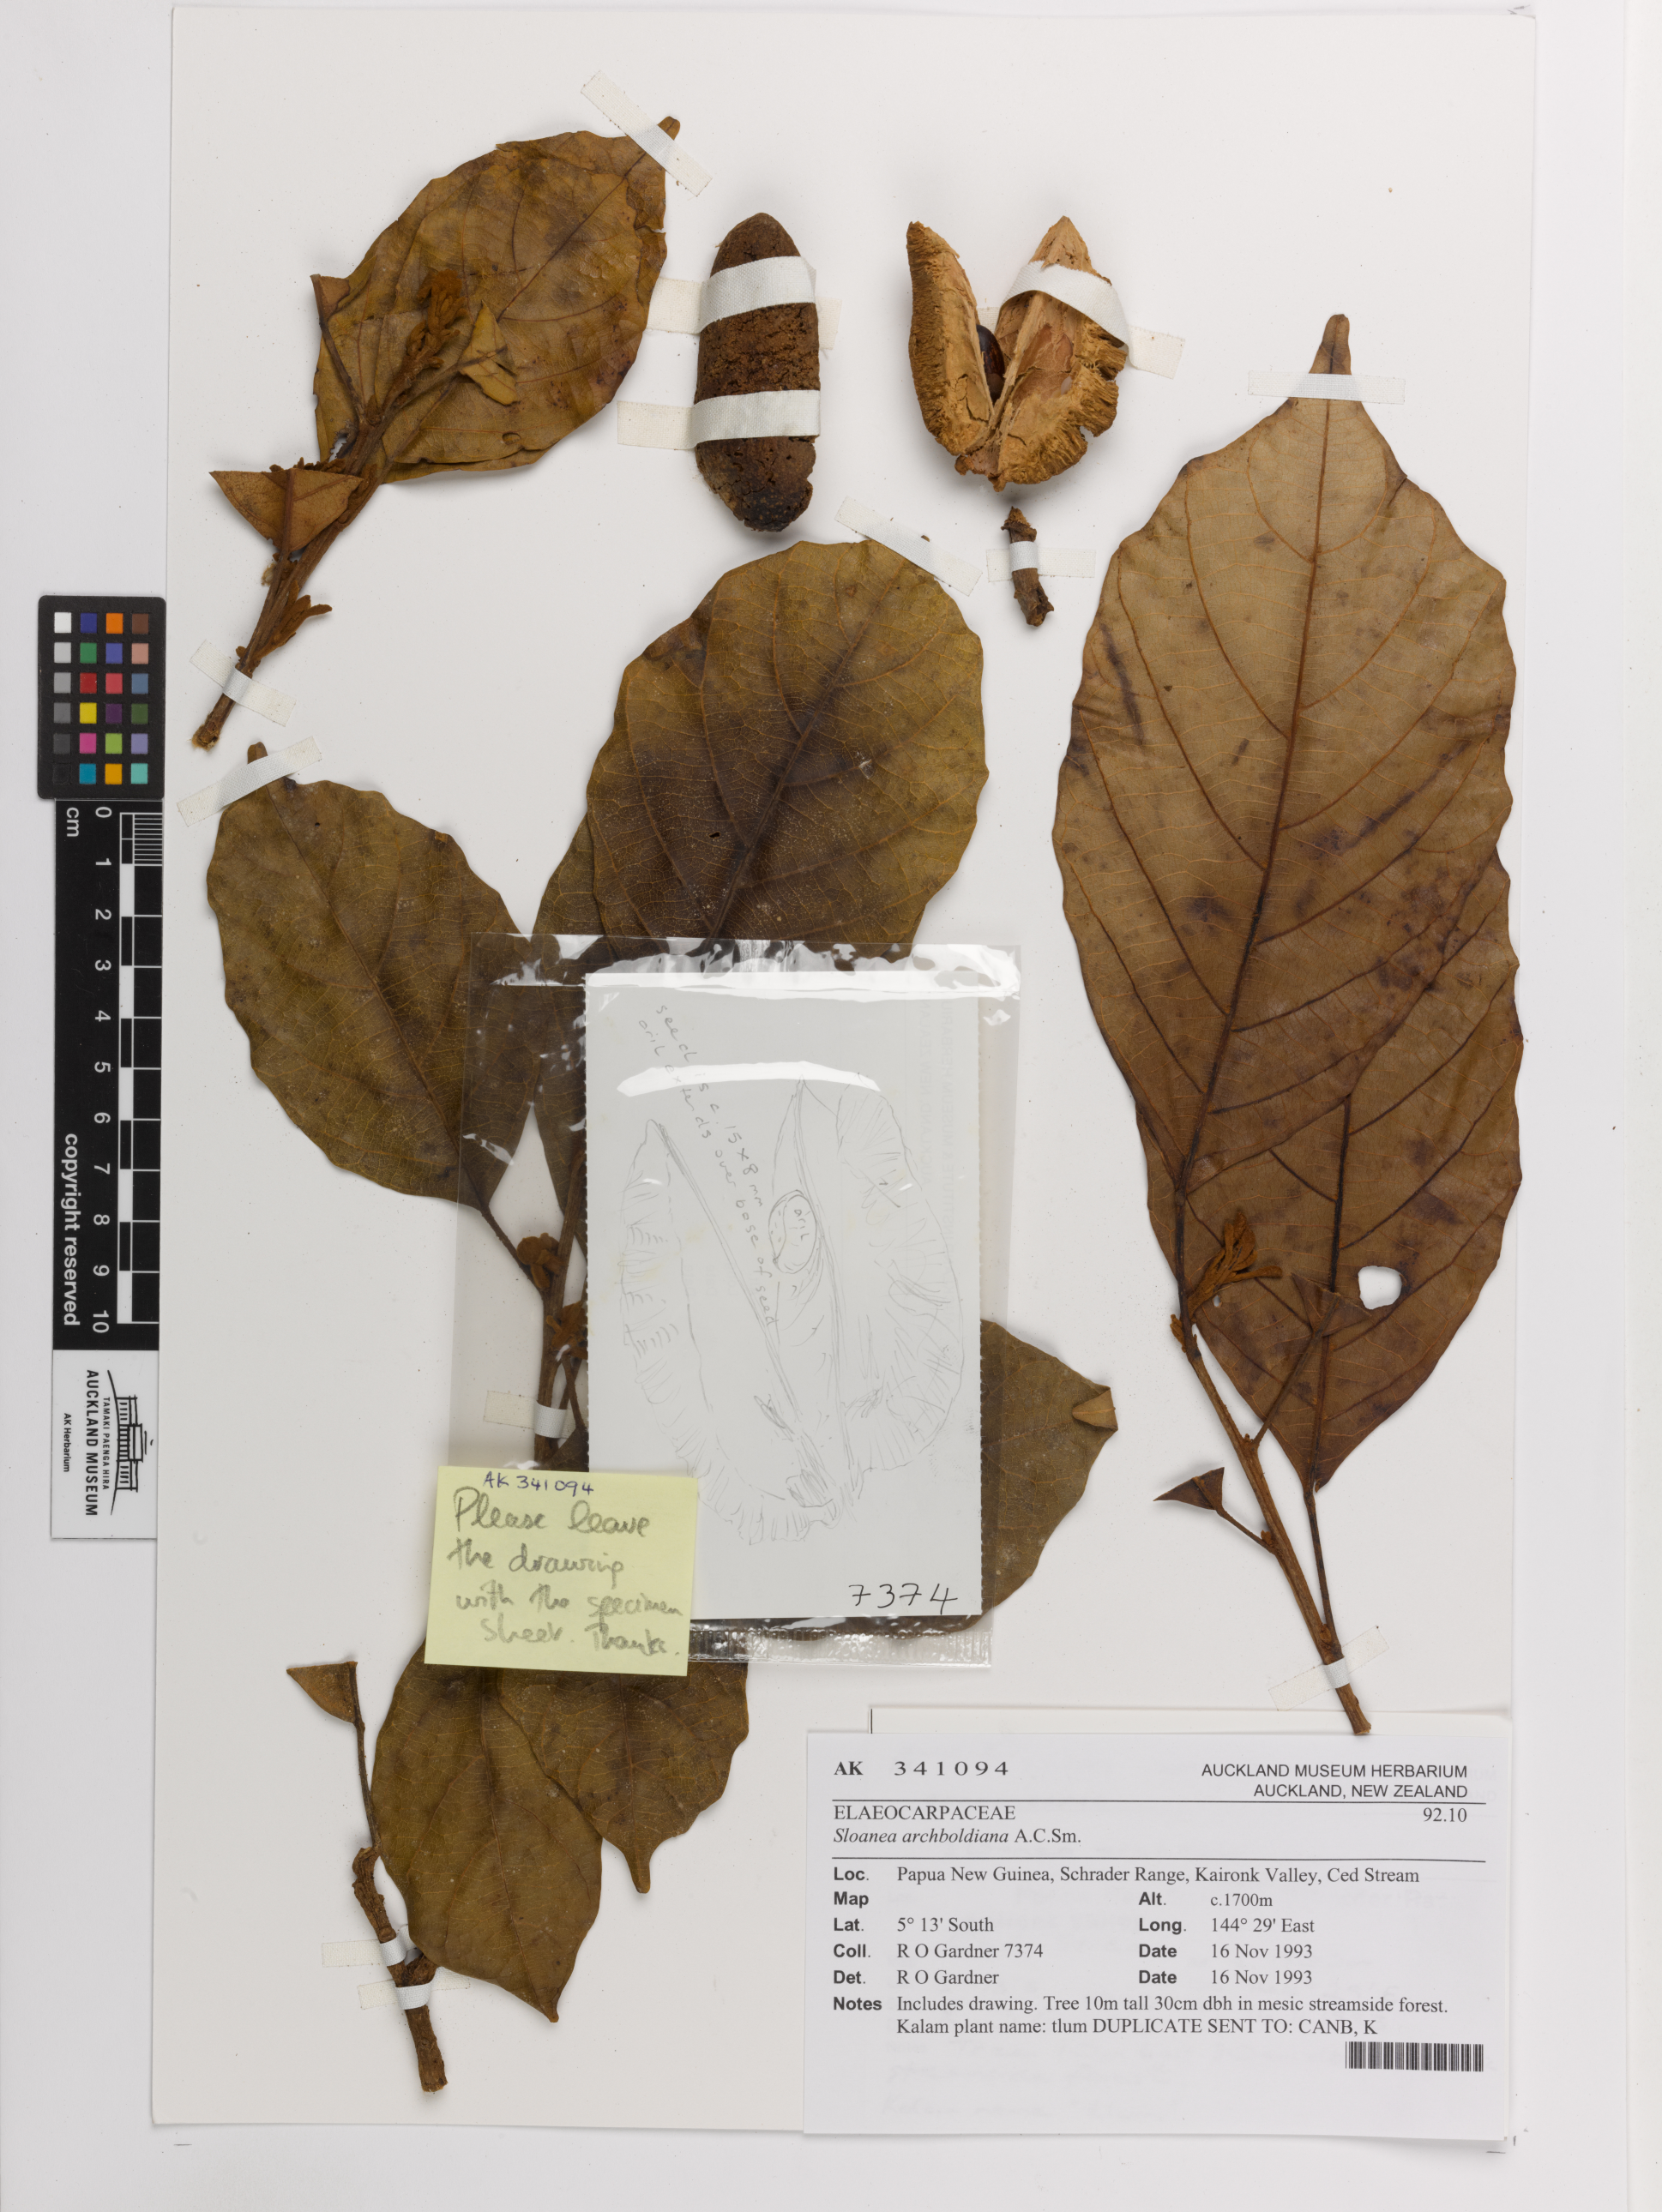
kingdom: Plantae
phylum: Tracheophyta
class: Magnoliopsida
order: Oxalidales
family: Elaeocarpaceae
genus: Sloanea
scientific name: Sloanea tieghemii
